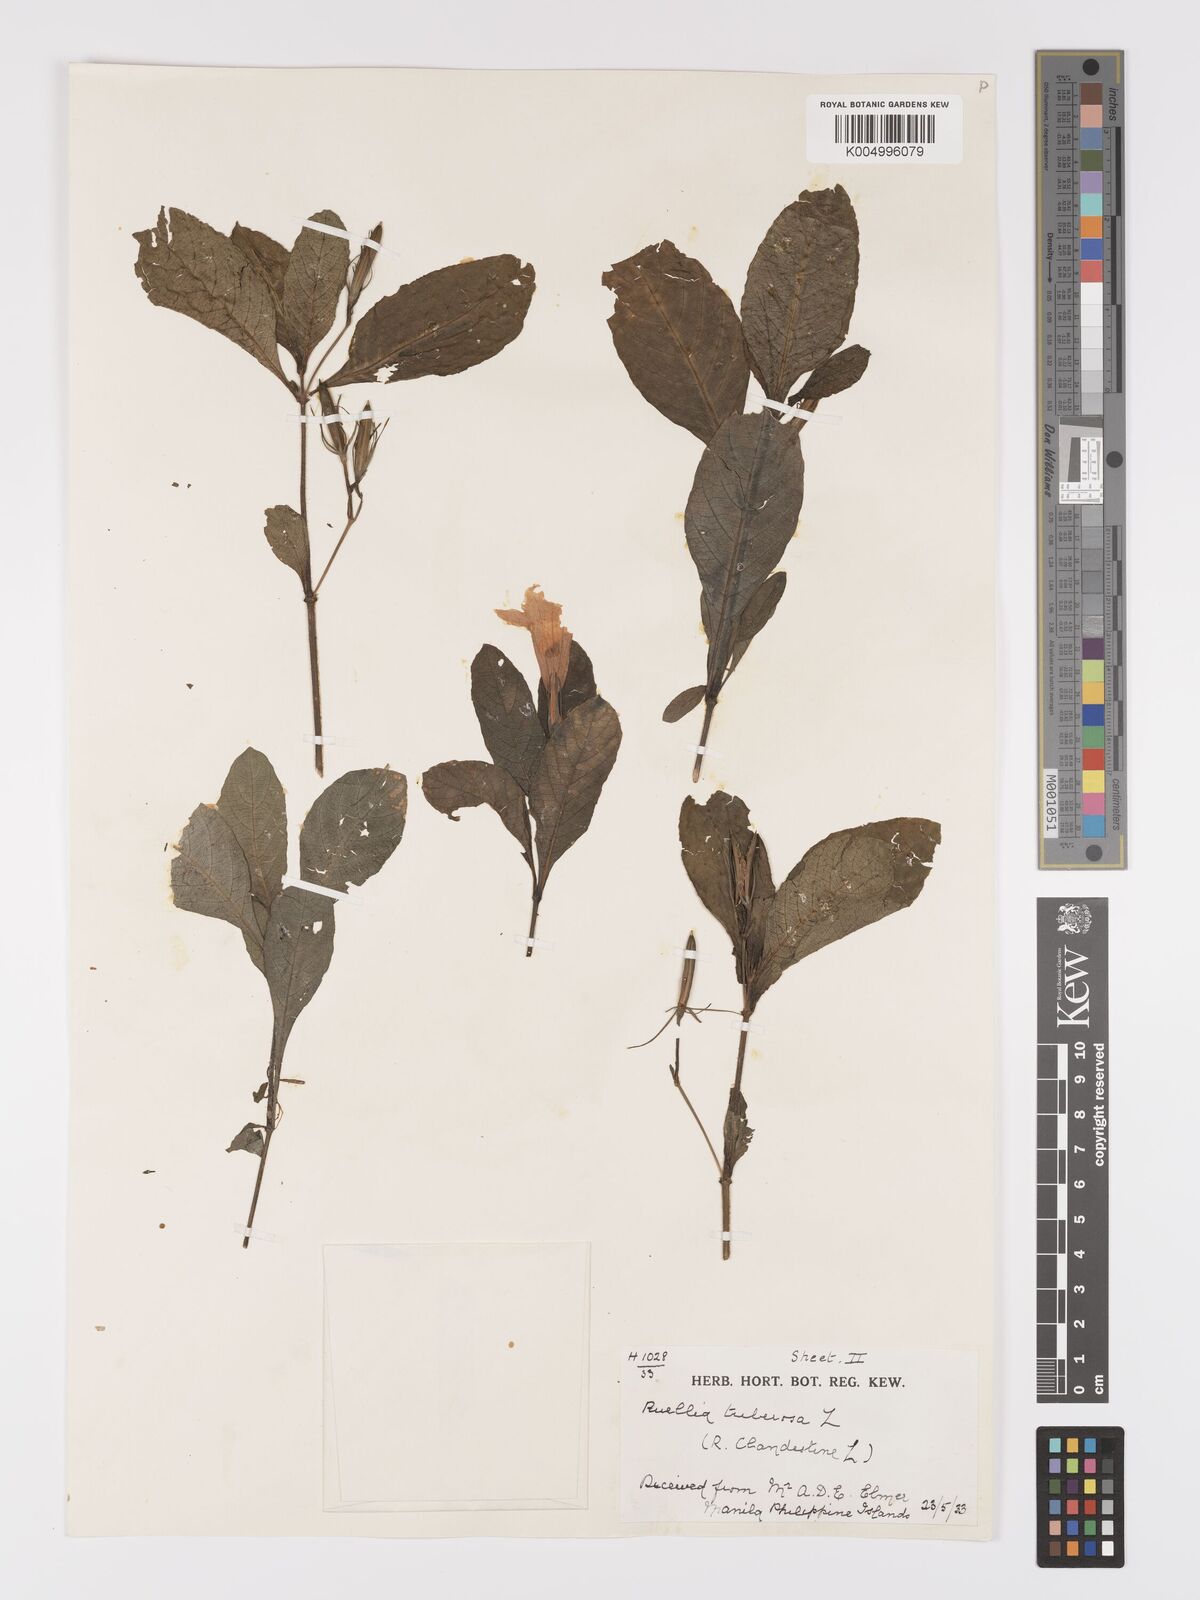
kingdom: Plantae
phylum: Tracheophyta
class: Magnoliopsida
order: Lamiales
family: Acanthaceae
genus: Ruellia
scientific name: Ruellia tuberosa
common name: Devil's bit
